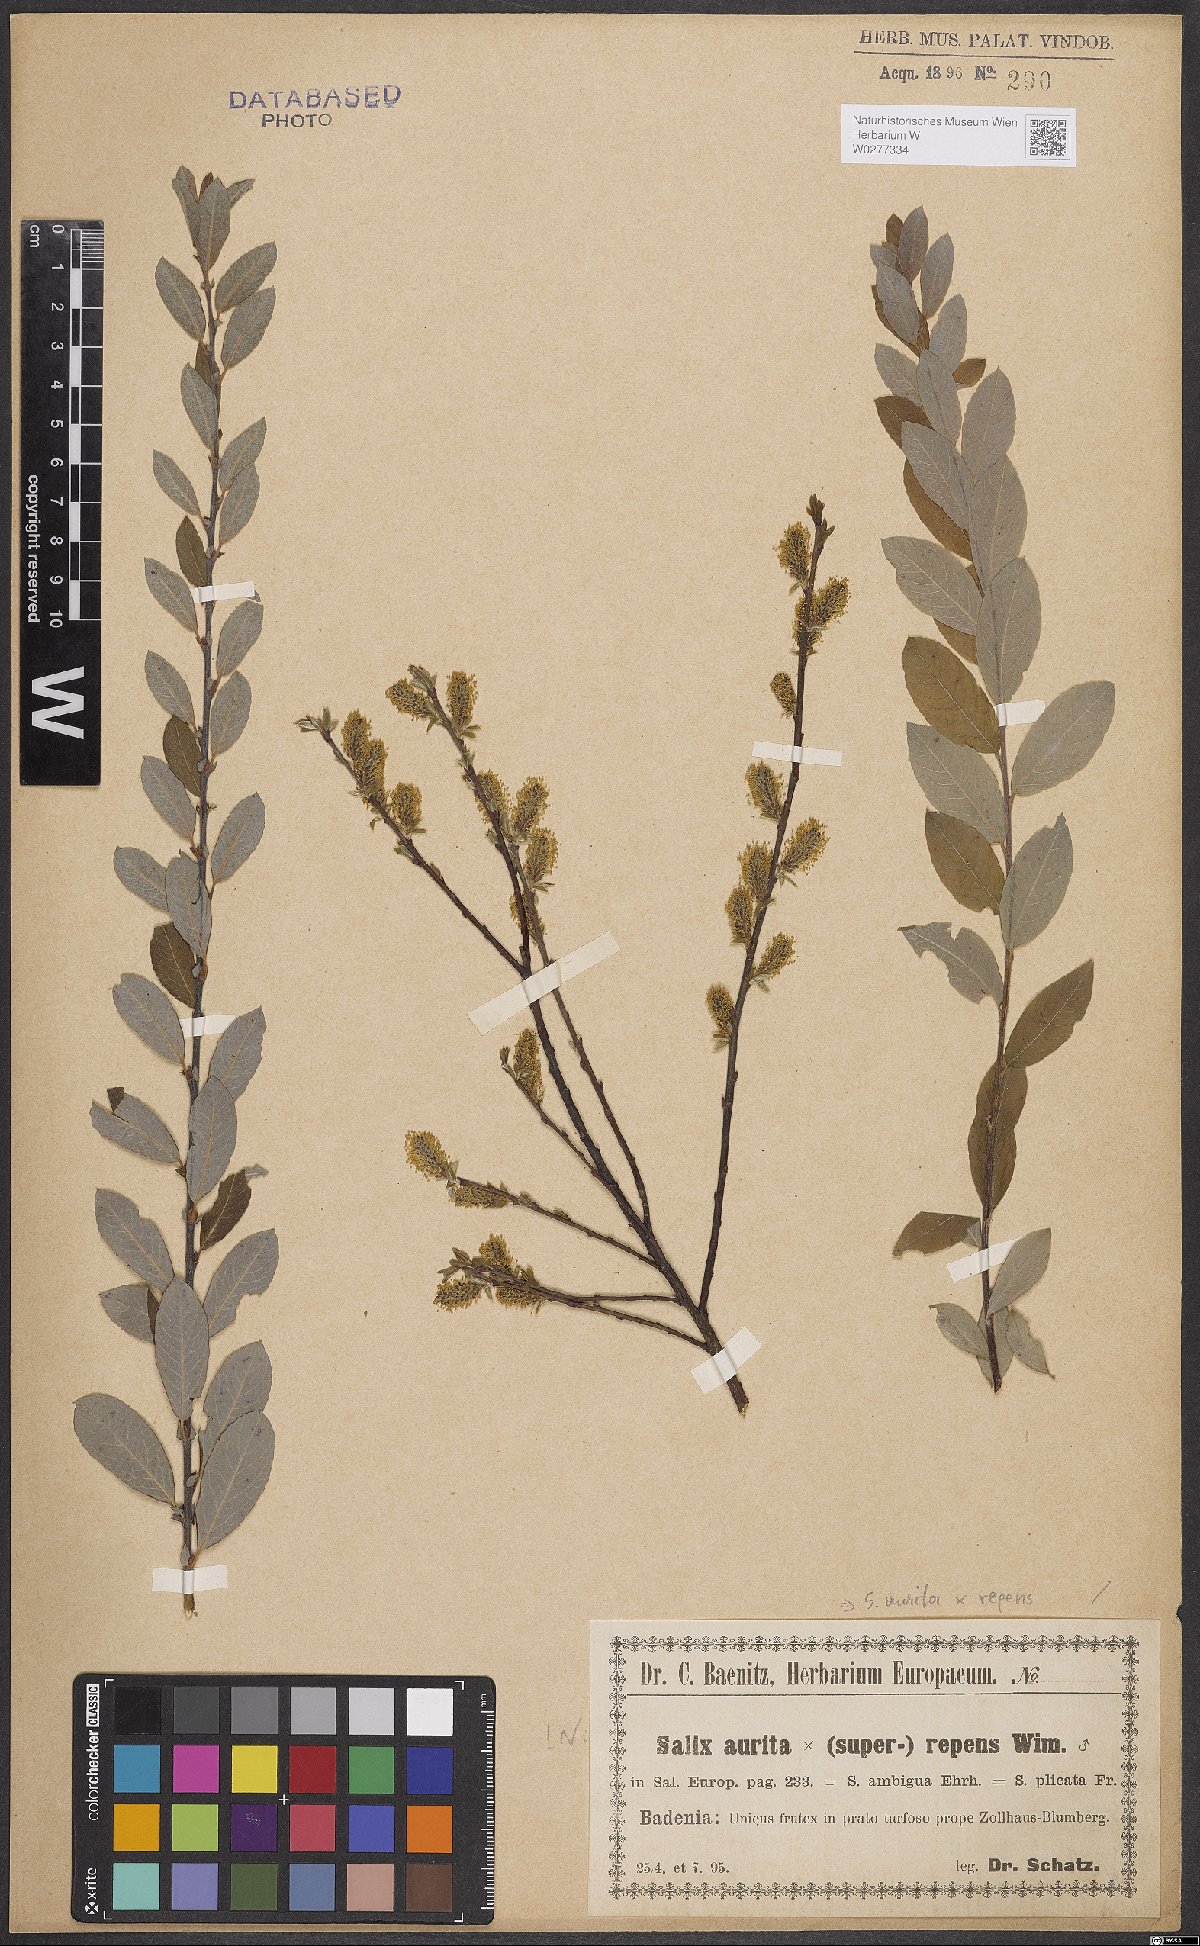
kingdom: Plantae
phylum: Tracheophyta
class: Magnoliopsida
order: Malpighiales
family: Salicaceae
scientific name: Salicaceae
